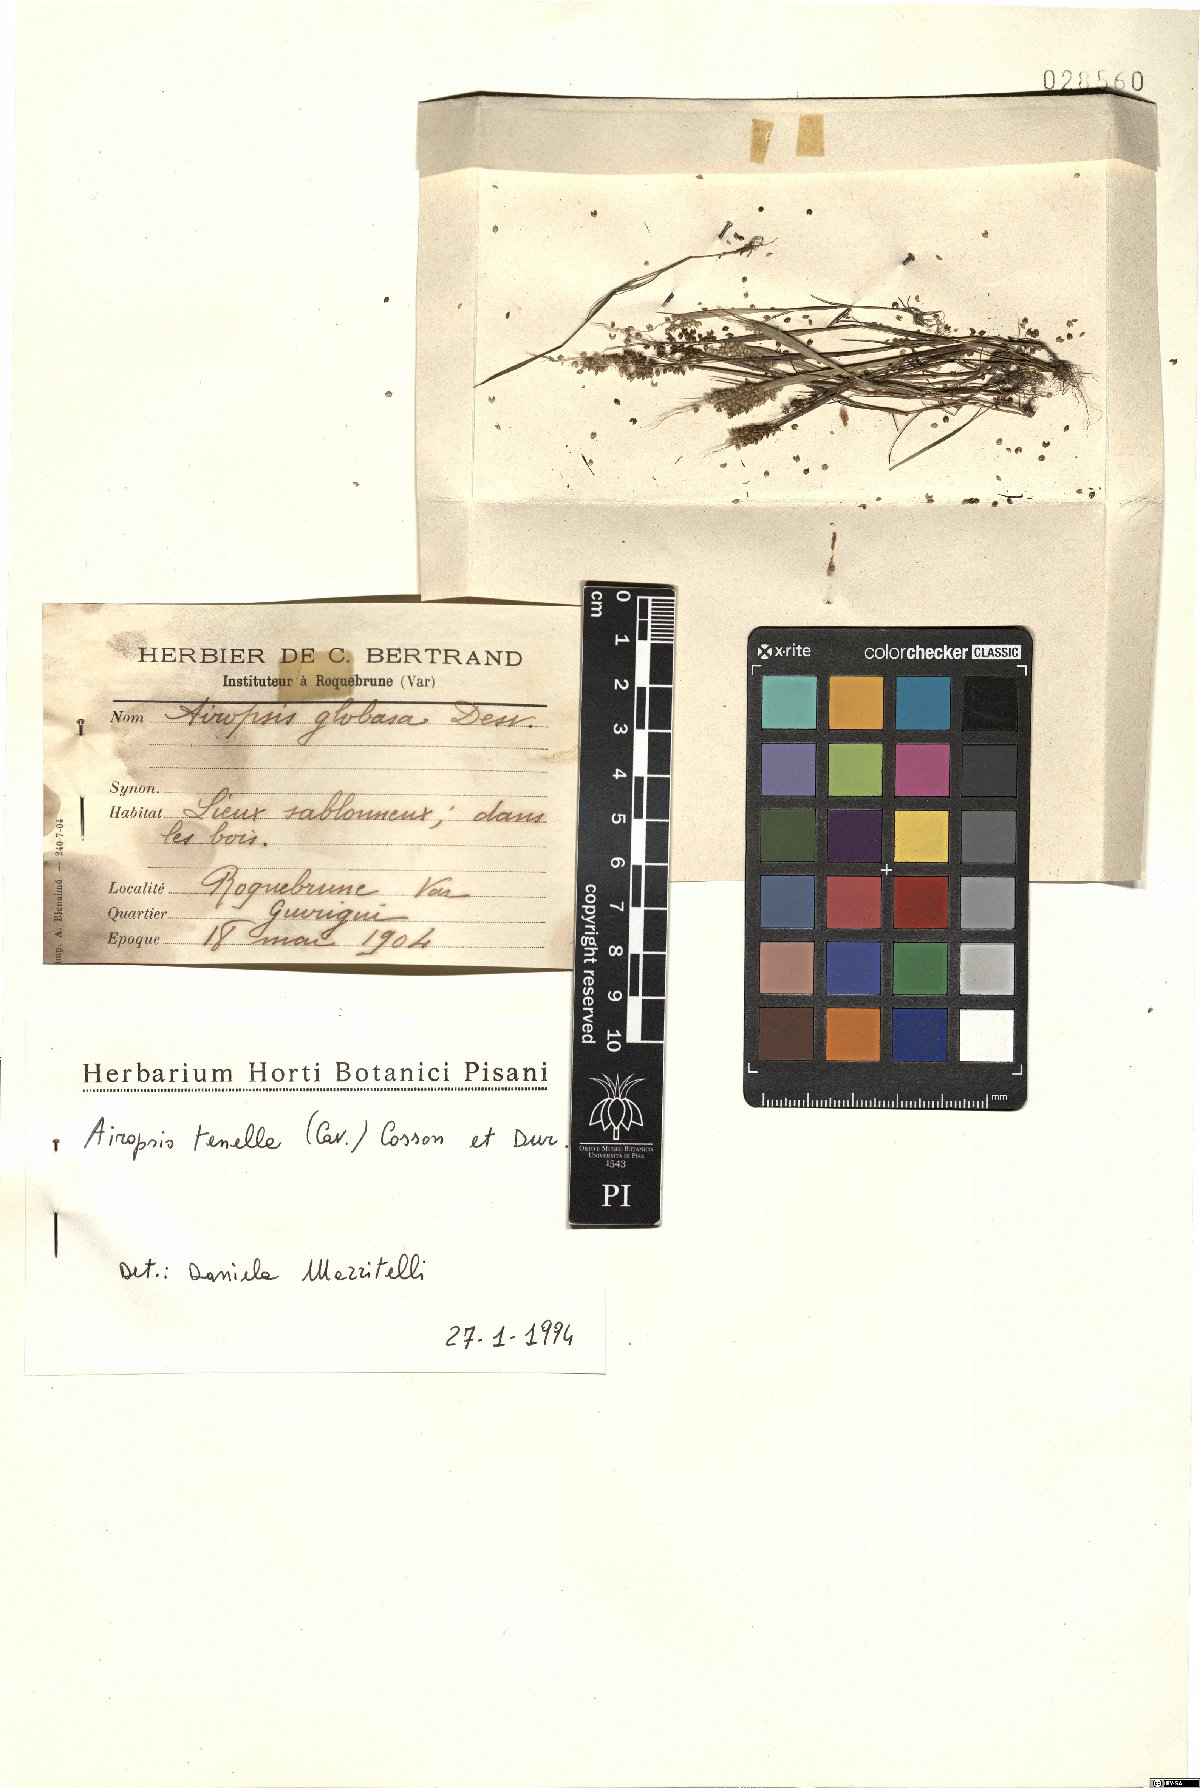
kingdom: Plantae
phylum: Tracheophyta
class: Liliopsida
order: Poales
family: Poaceae
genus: Airopsis
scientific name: Airopsis tenella
